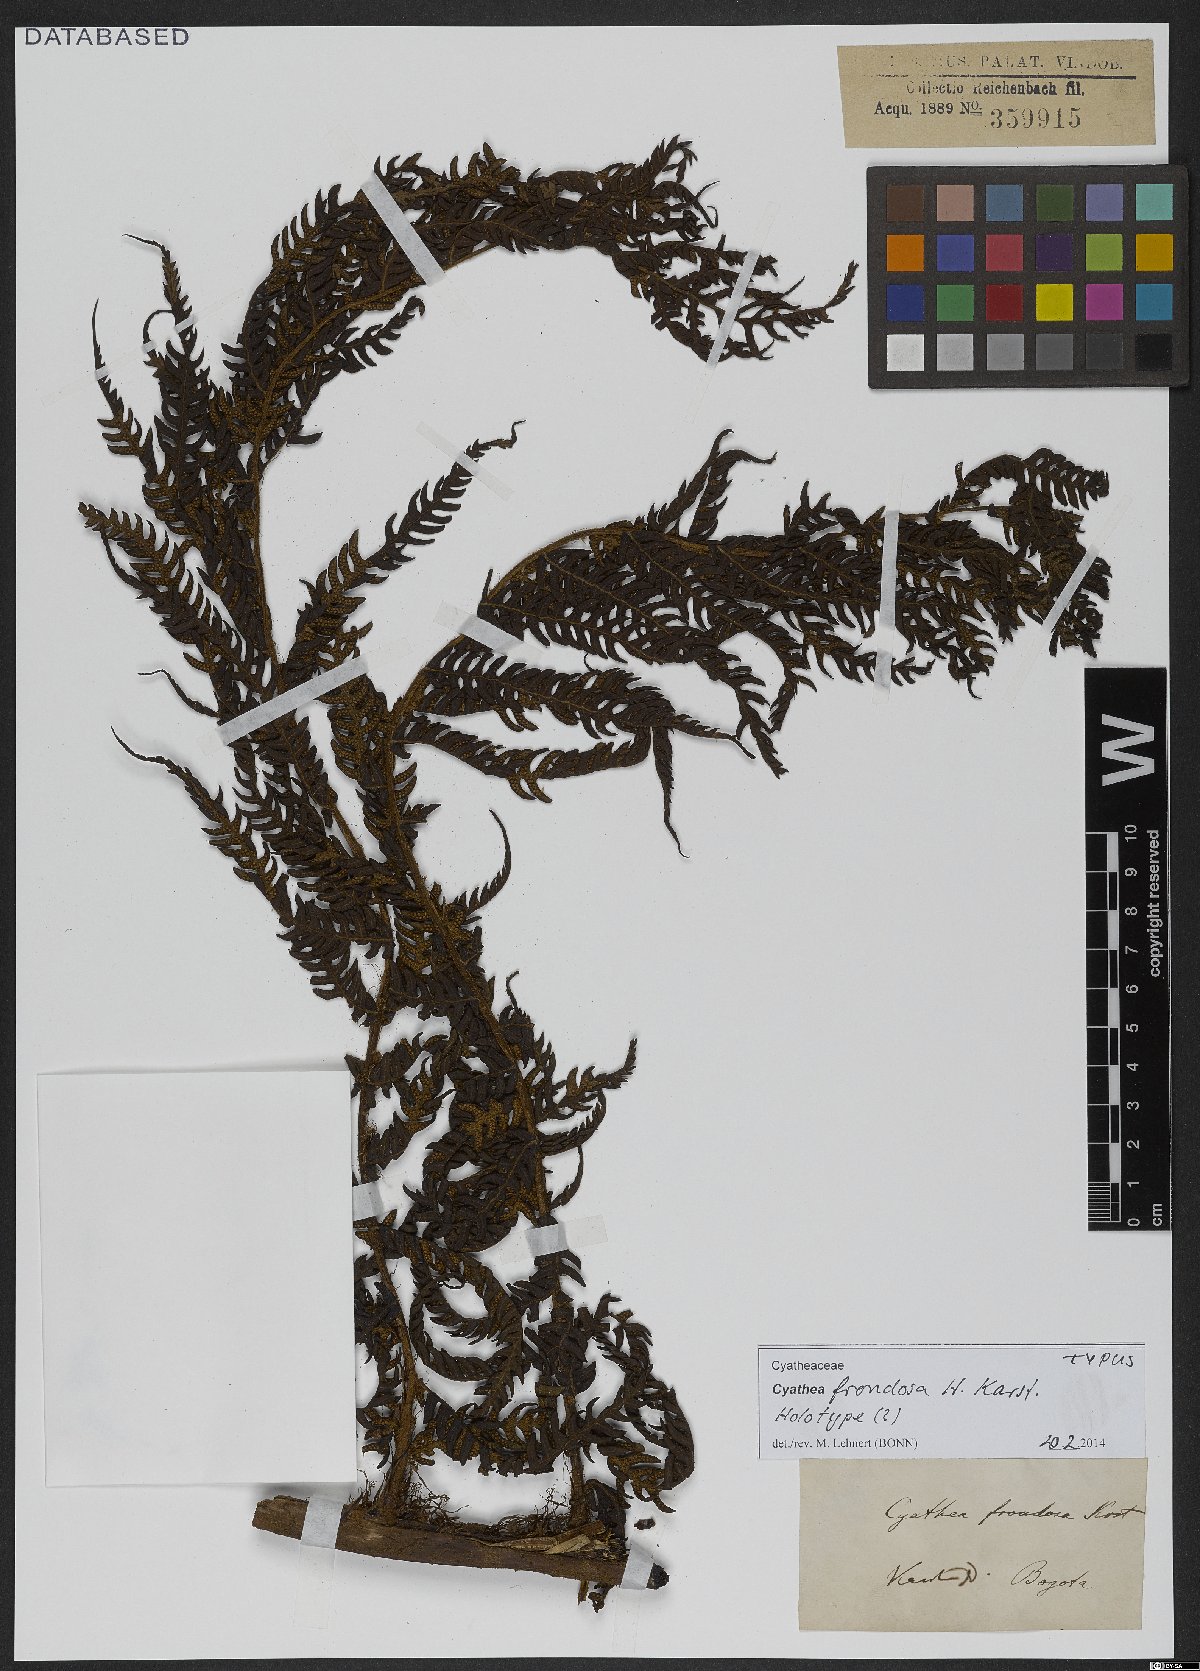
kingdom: Plantae
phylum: Tracheophyta
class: Polypodiopsida
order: Cyatheales
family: Cyatheaceae
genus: Cyathea
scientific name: Cyathea frondosa
